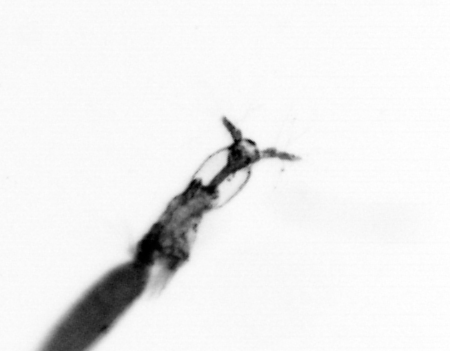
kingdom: Animalia
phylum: Arthropoda
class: Copepoda
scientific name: Copepoda
